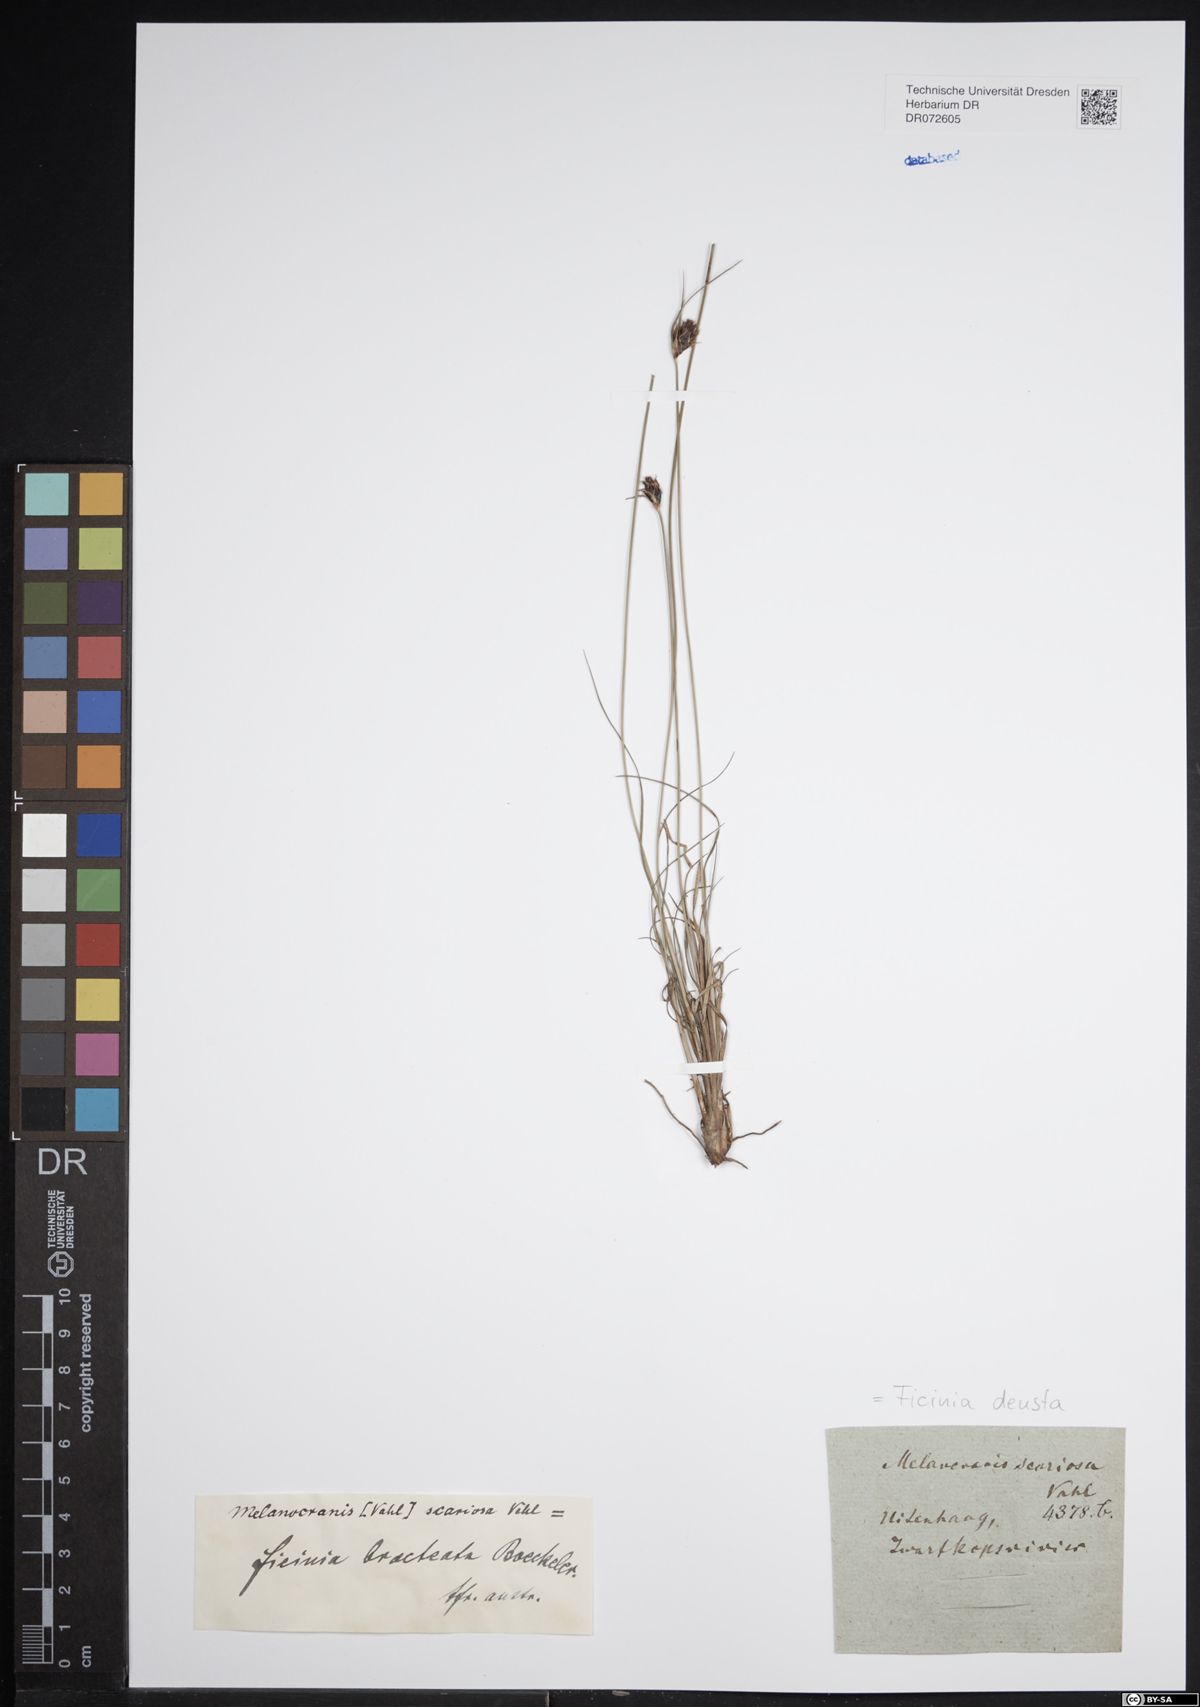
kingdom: Plantae
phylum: Tracheophyta
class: Liliopsida
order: Poales
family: Cyperaceae
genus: Ficinia
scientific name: Ficinia deusta
